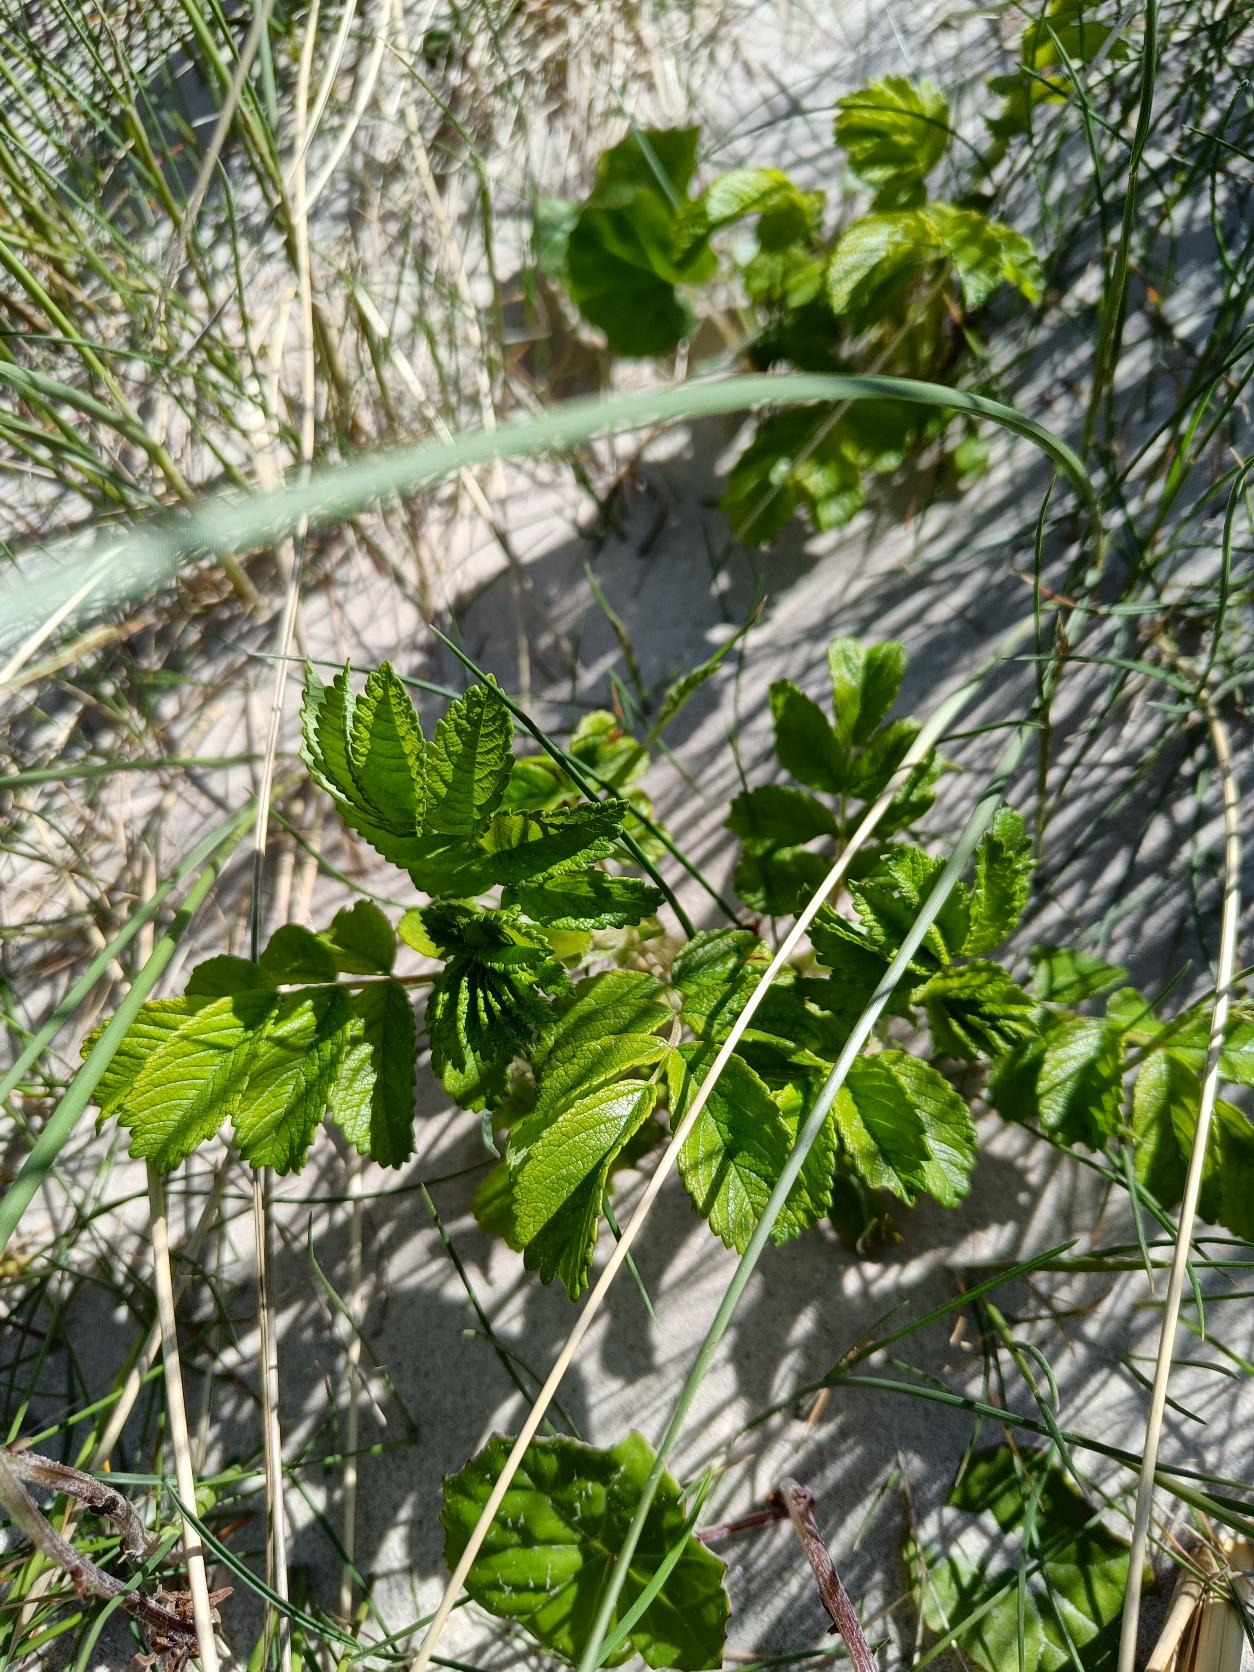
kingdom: Plantae
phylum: Tracheophyta
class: Magnoliopsida
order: Rosales
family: Rosaceae
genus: Rosa
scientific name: Rosa rugosa
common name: Rynket rose
